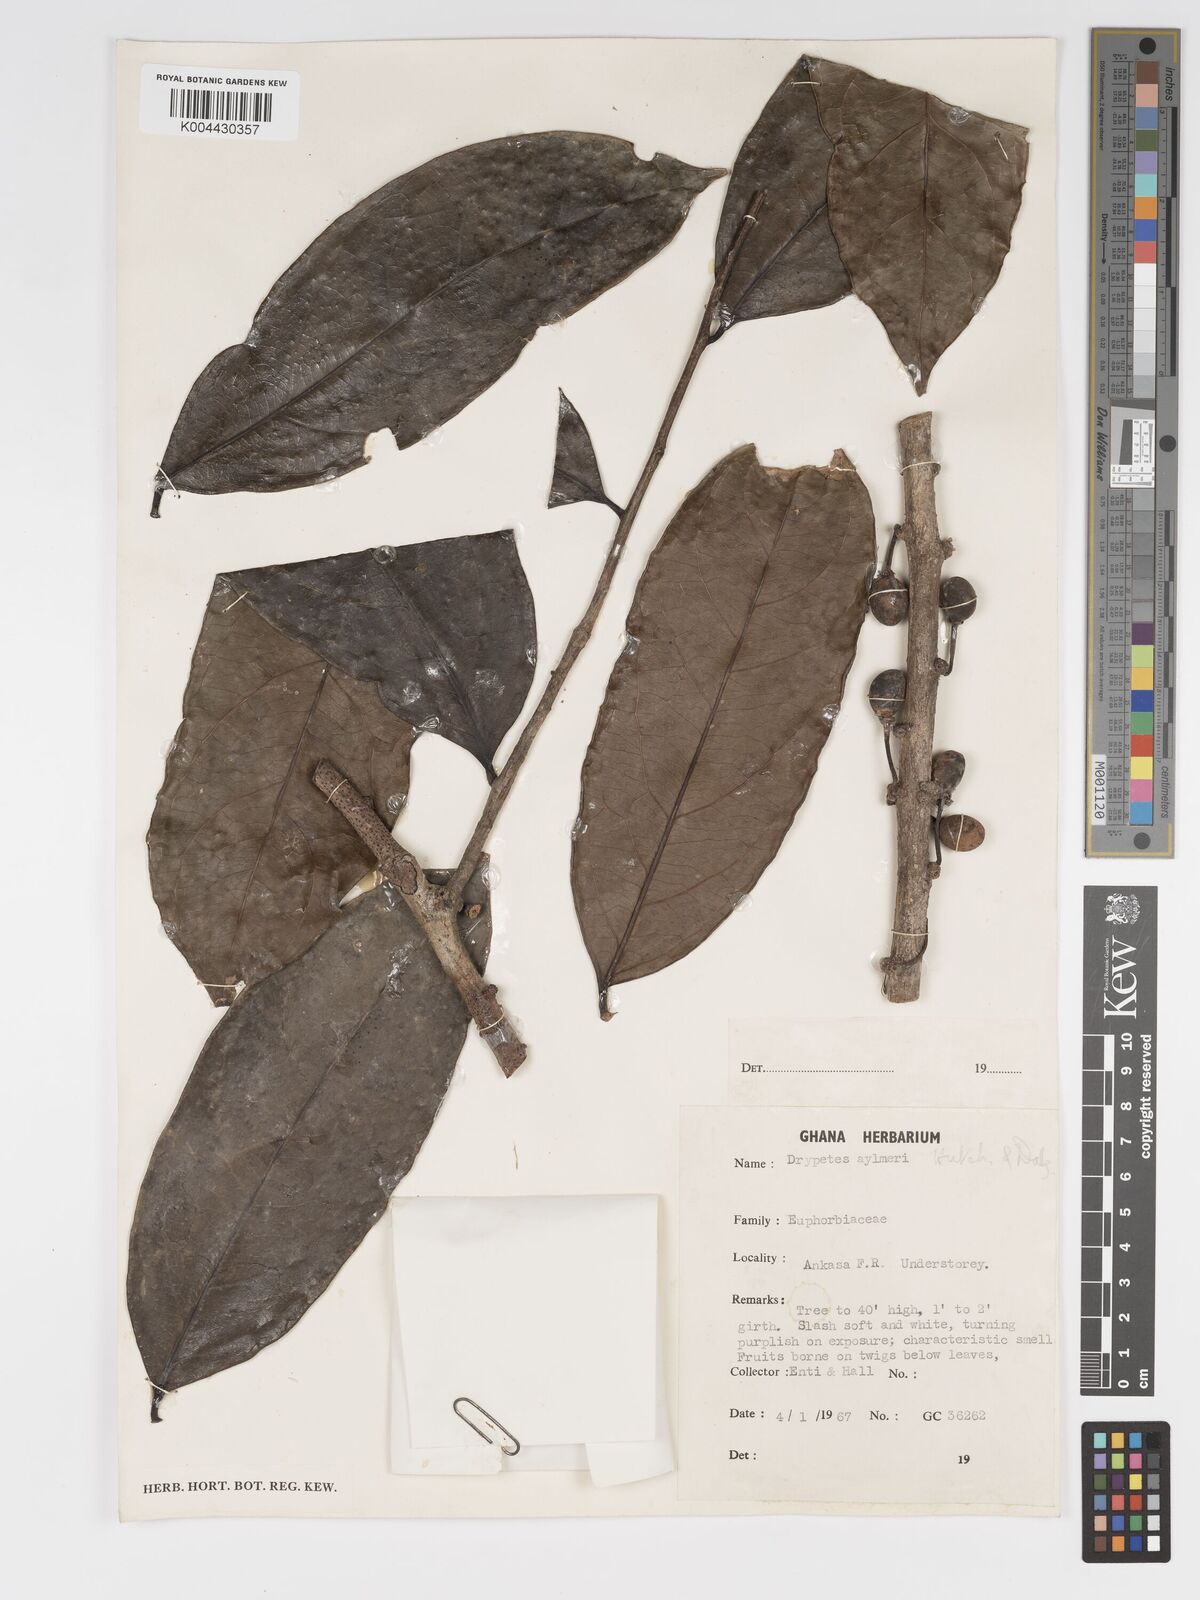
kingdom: Plantae
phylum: Tracheophyta
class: Magnoliopsida
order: Malpighiales
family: Putranjivaceae
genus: Drypetes
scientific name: Drypetes aylmeri
